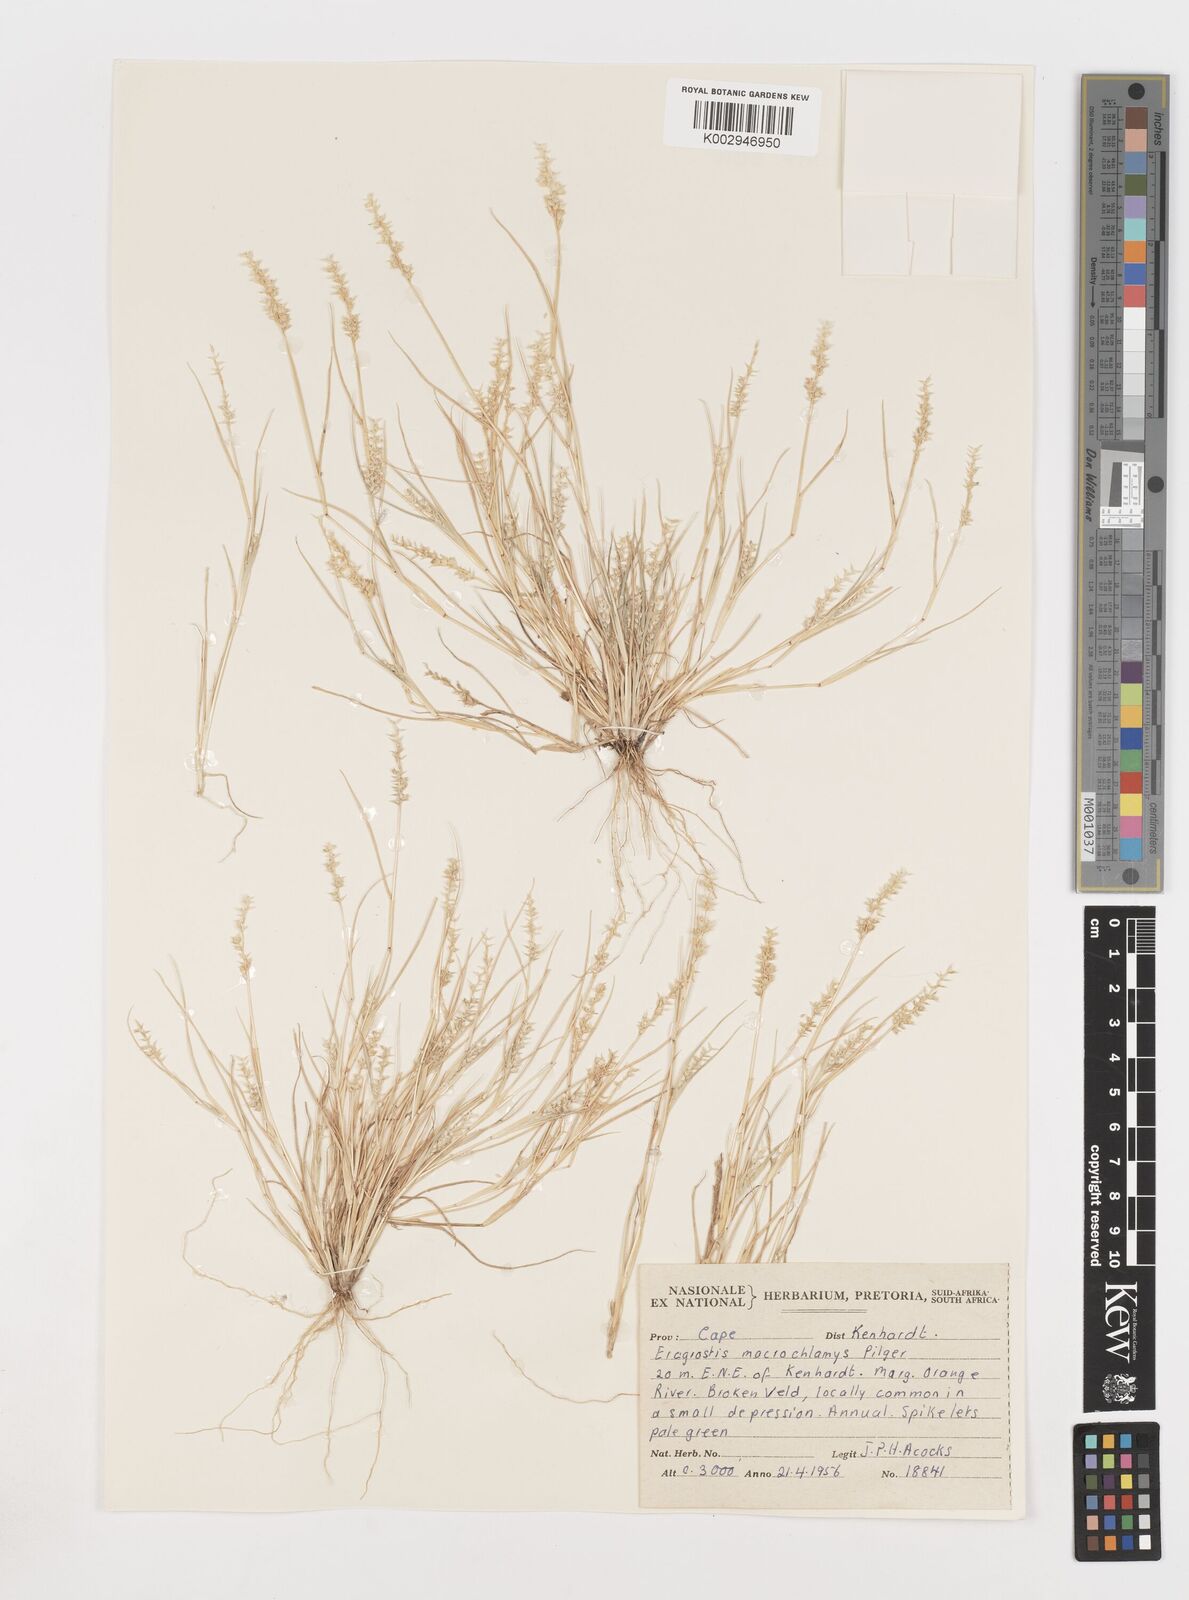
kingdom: Plantae
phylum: Tracheophyta
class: Liliopsida
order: Poales
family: Poaceae
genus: Eragrostis
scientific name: Eragrostis macrochlamys
